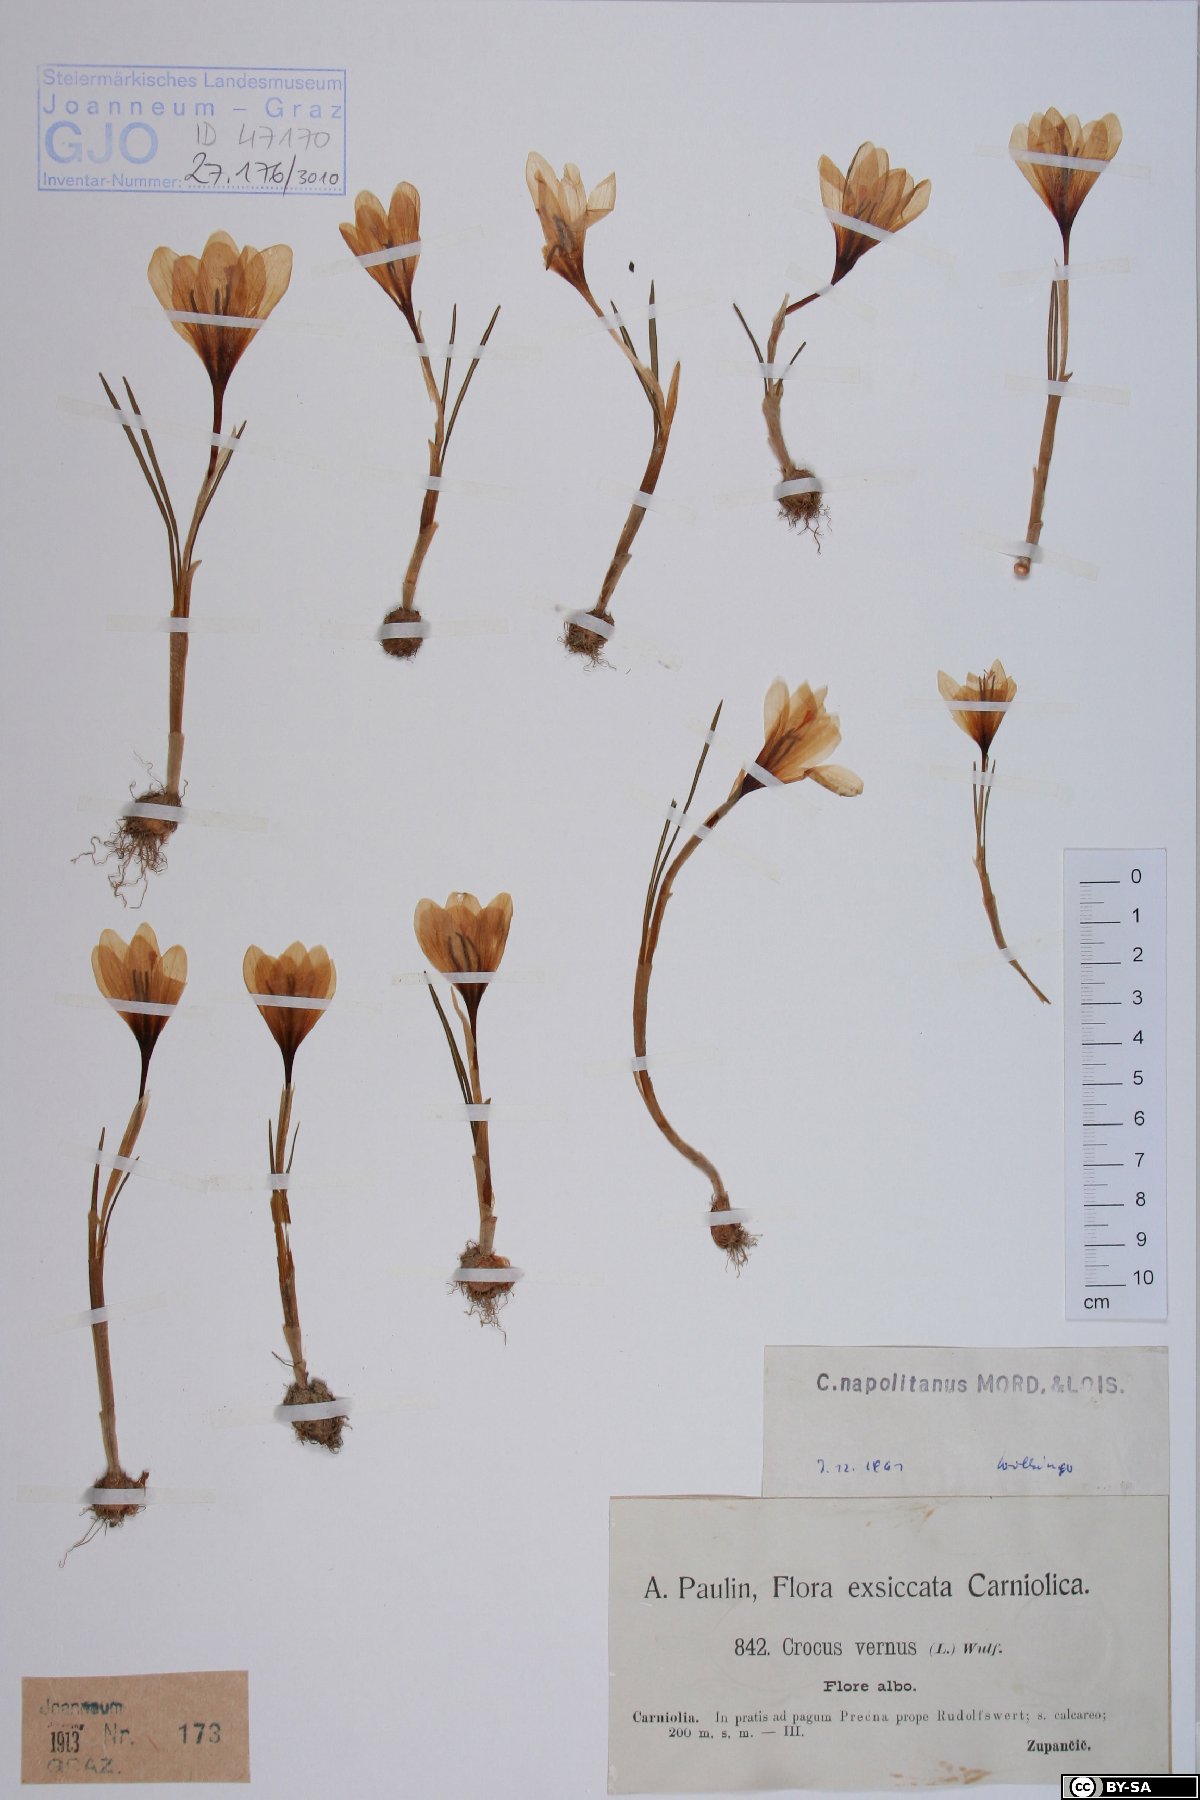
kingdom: Plantae
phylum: Tracheophyta
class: Liliopsida
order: Asparagales
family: Iridaceae
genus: Crocus
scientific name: Crocus vernus
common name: Spring crocus
